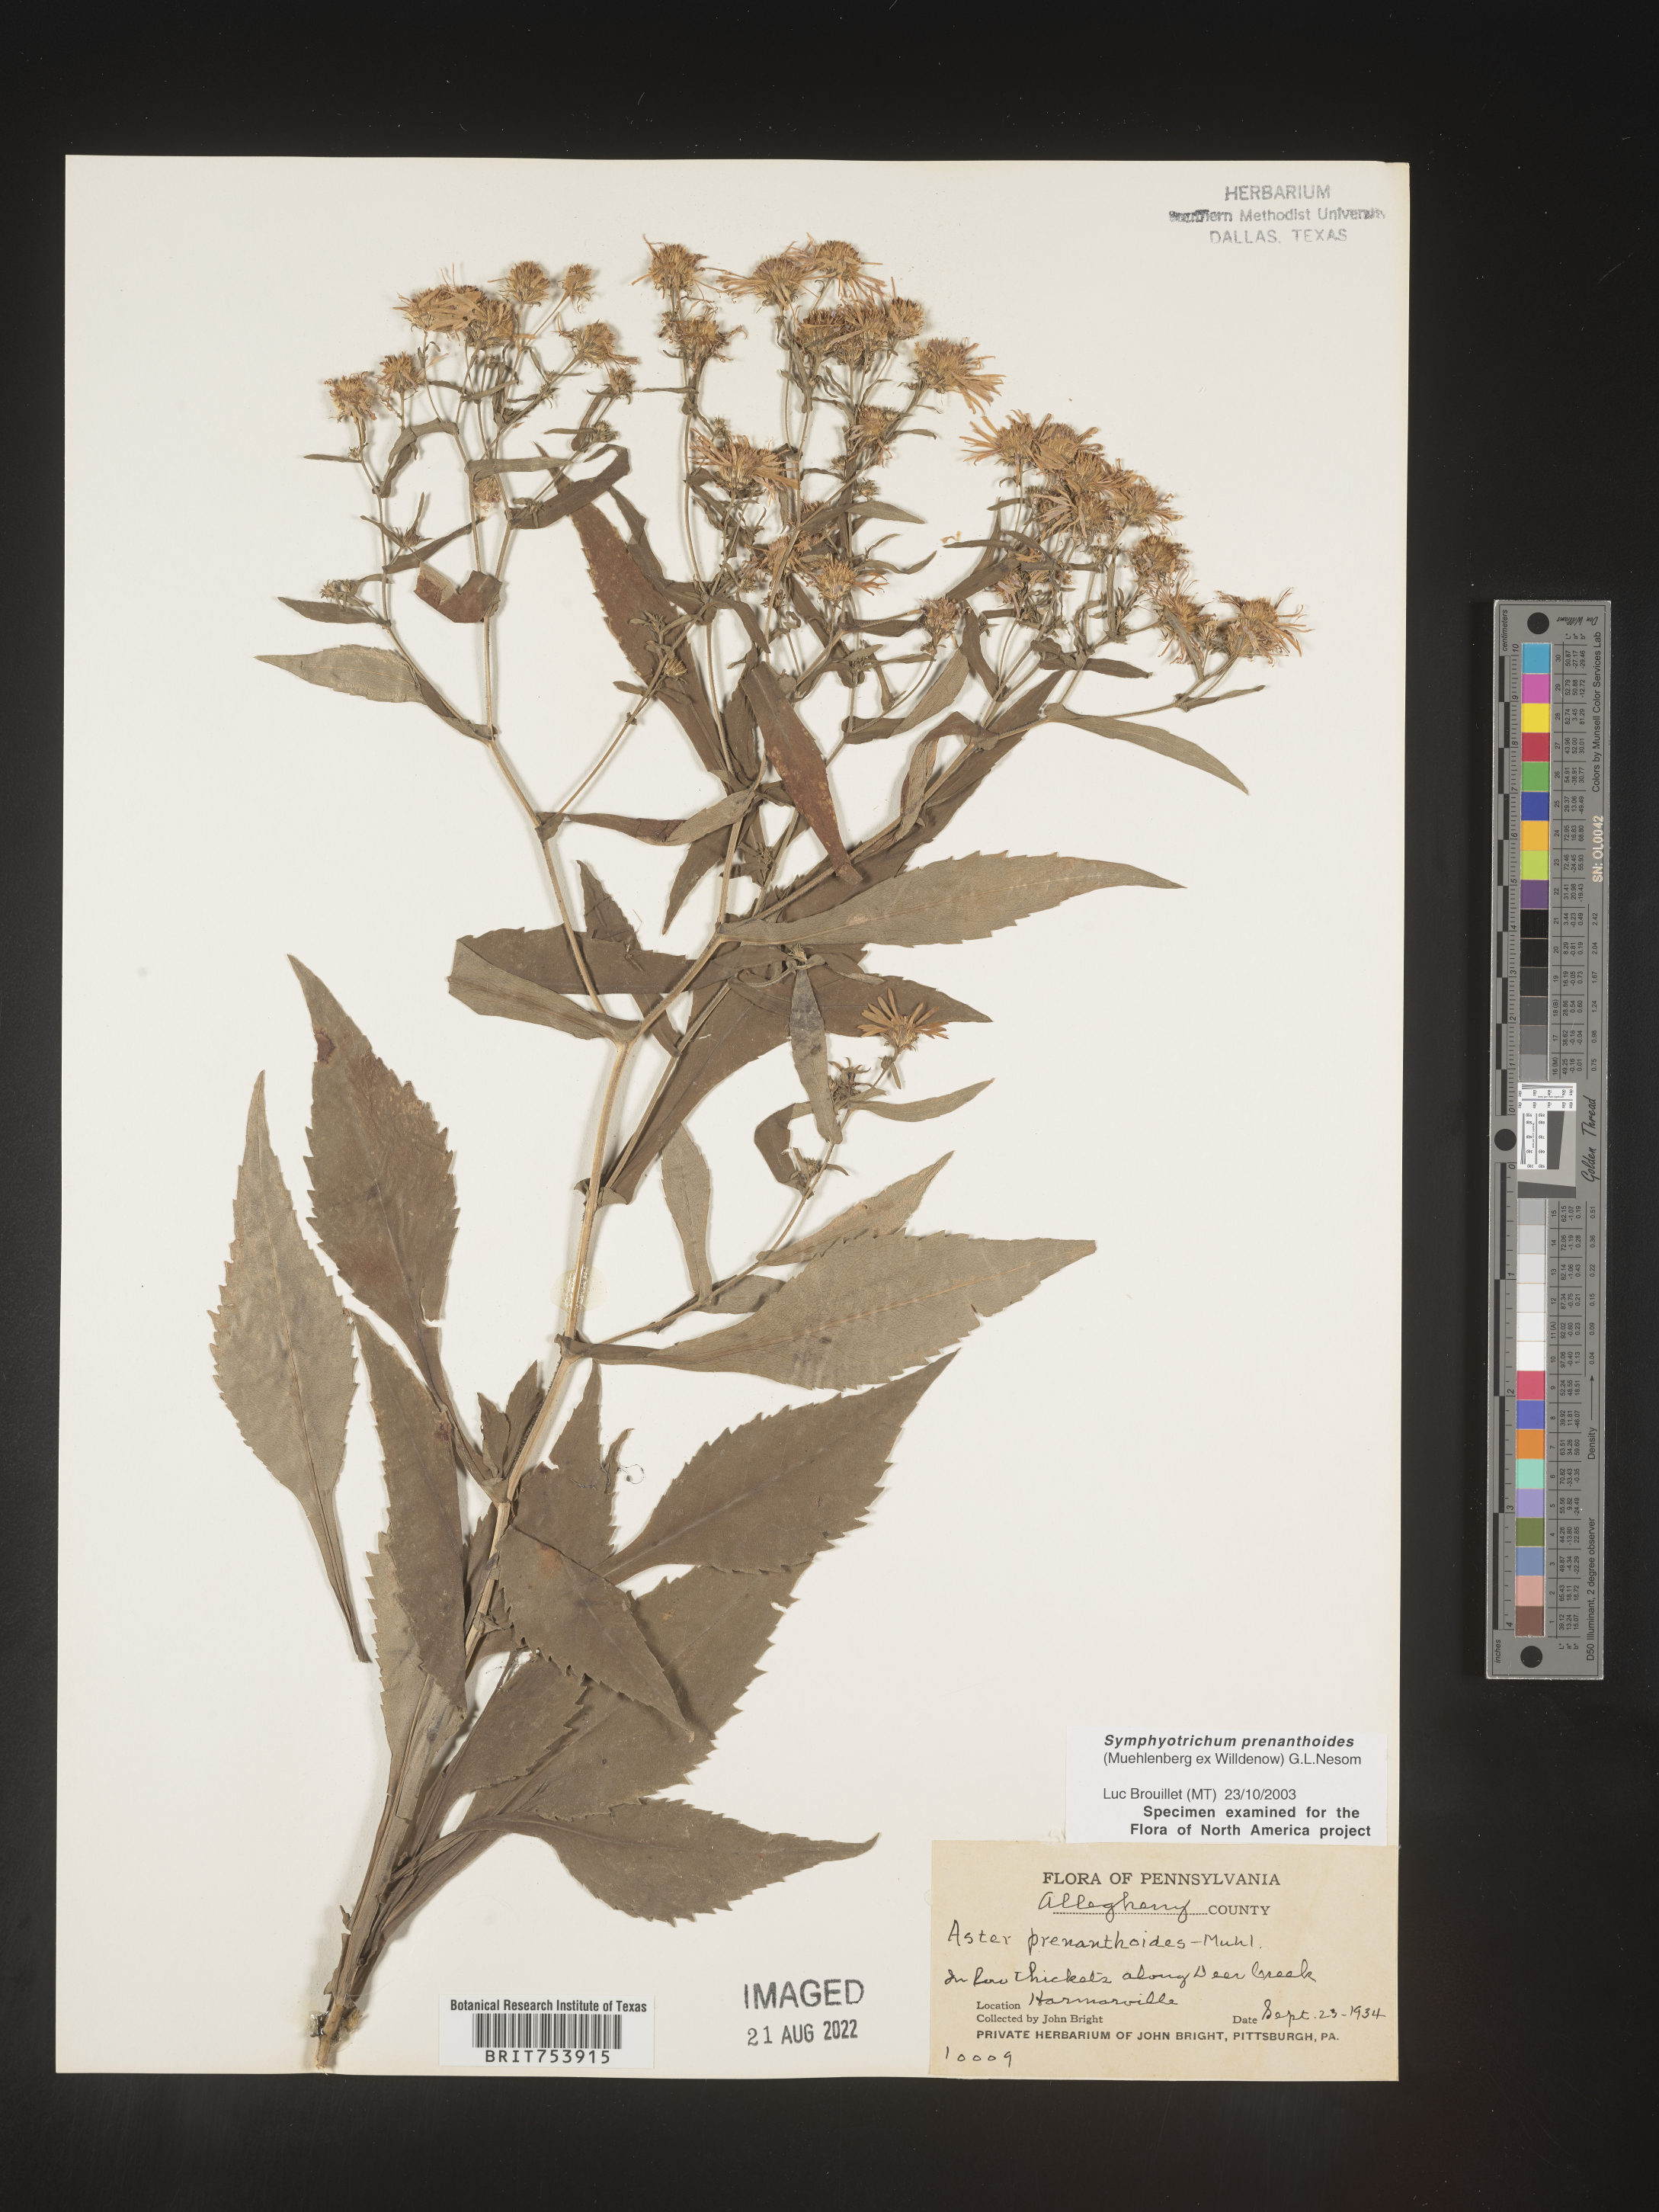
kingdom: Plantae
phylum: Tracheophyta
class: Magnoliopsida
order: Asterales
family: Asteraceae
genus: Symphyotrichum
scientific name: Symphyotrichum prenanthoides
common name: Crooked-stem aster
